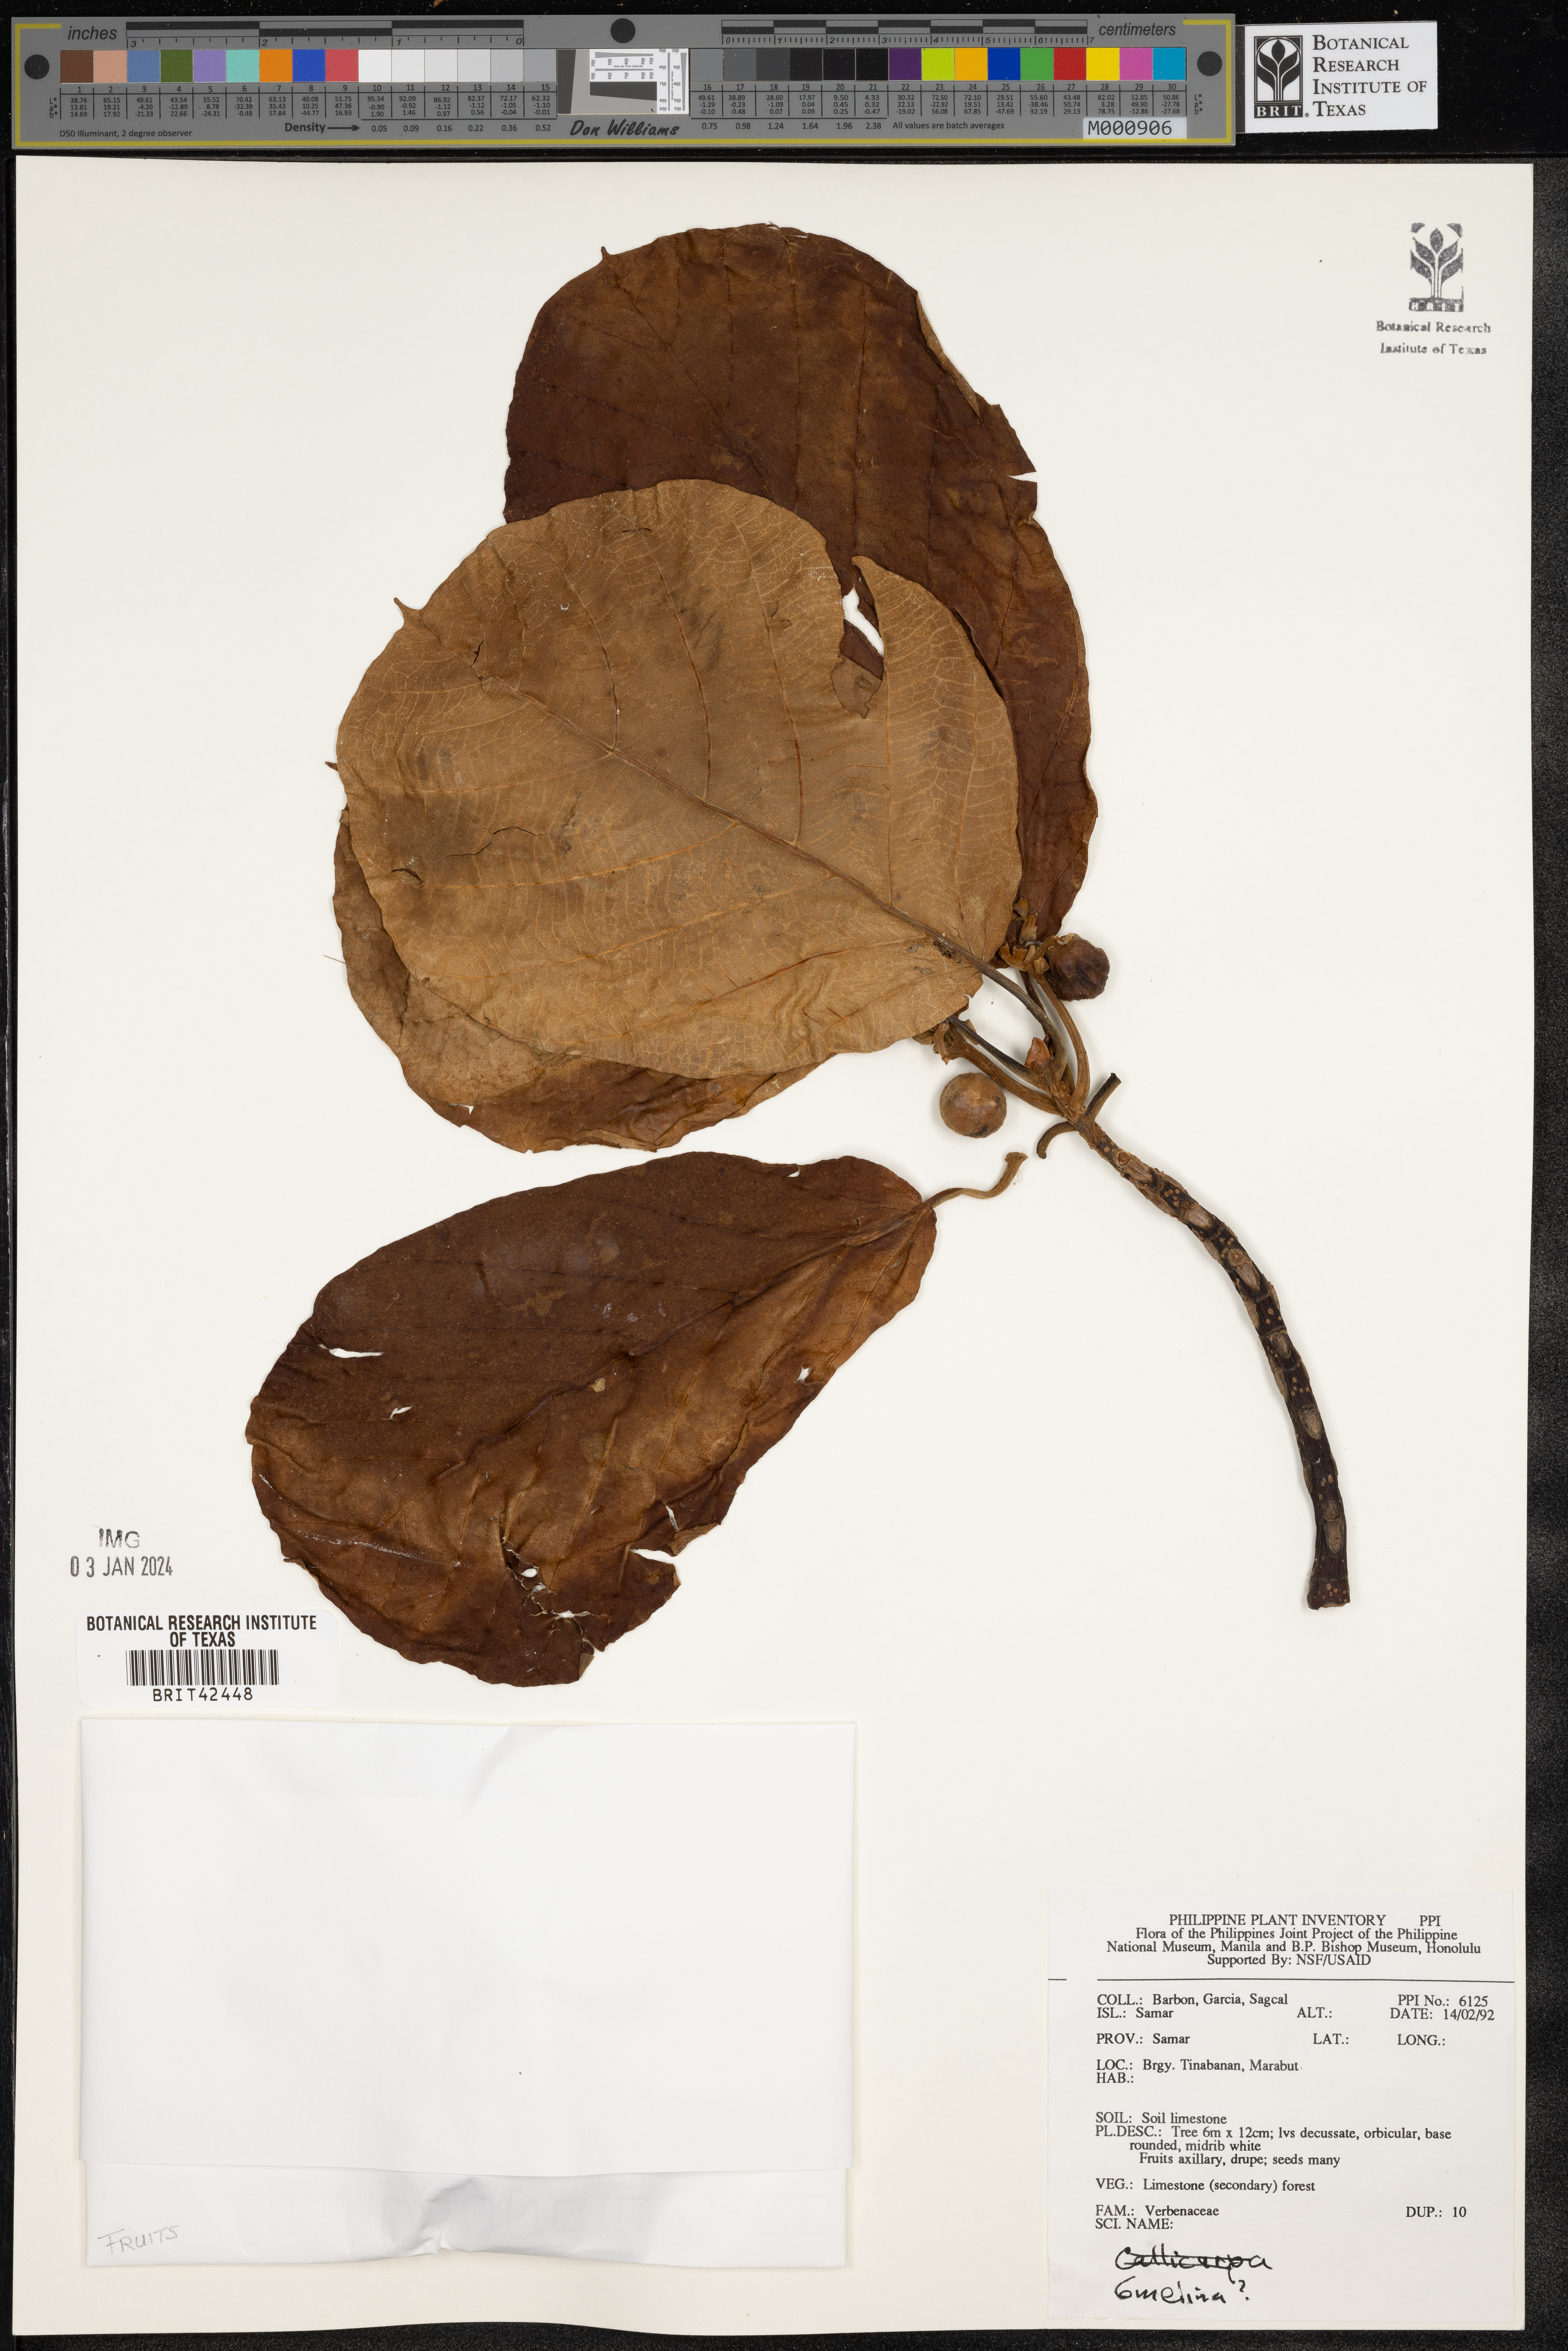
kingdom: Plantae
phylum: Tracheophyta
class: Magnoliopsida
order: Lamiales
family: Lamiaceae
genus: Gmelina
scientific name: Gmelina
